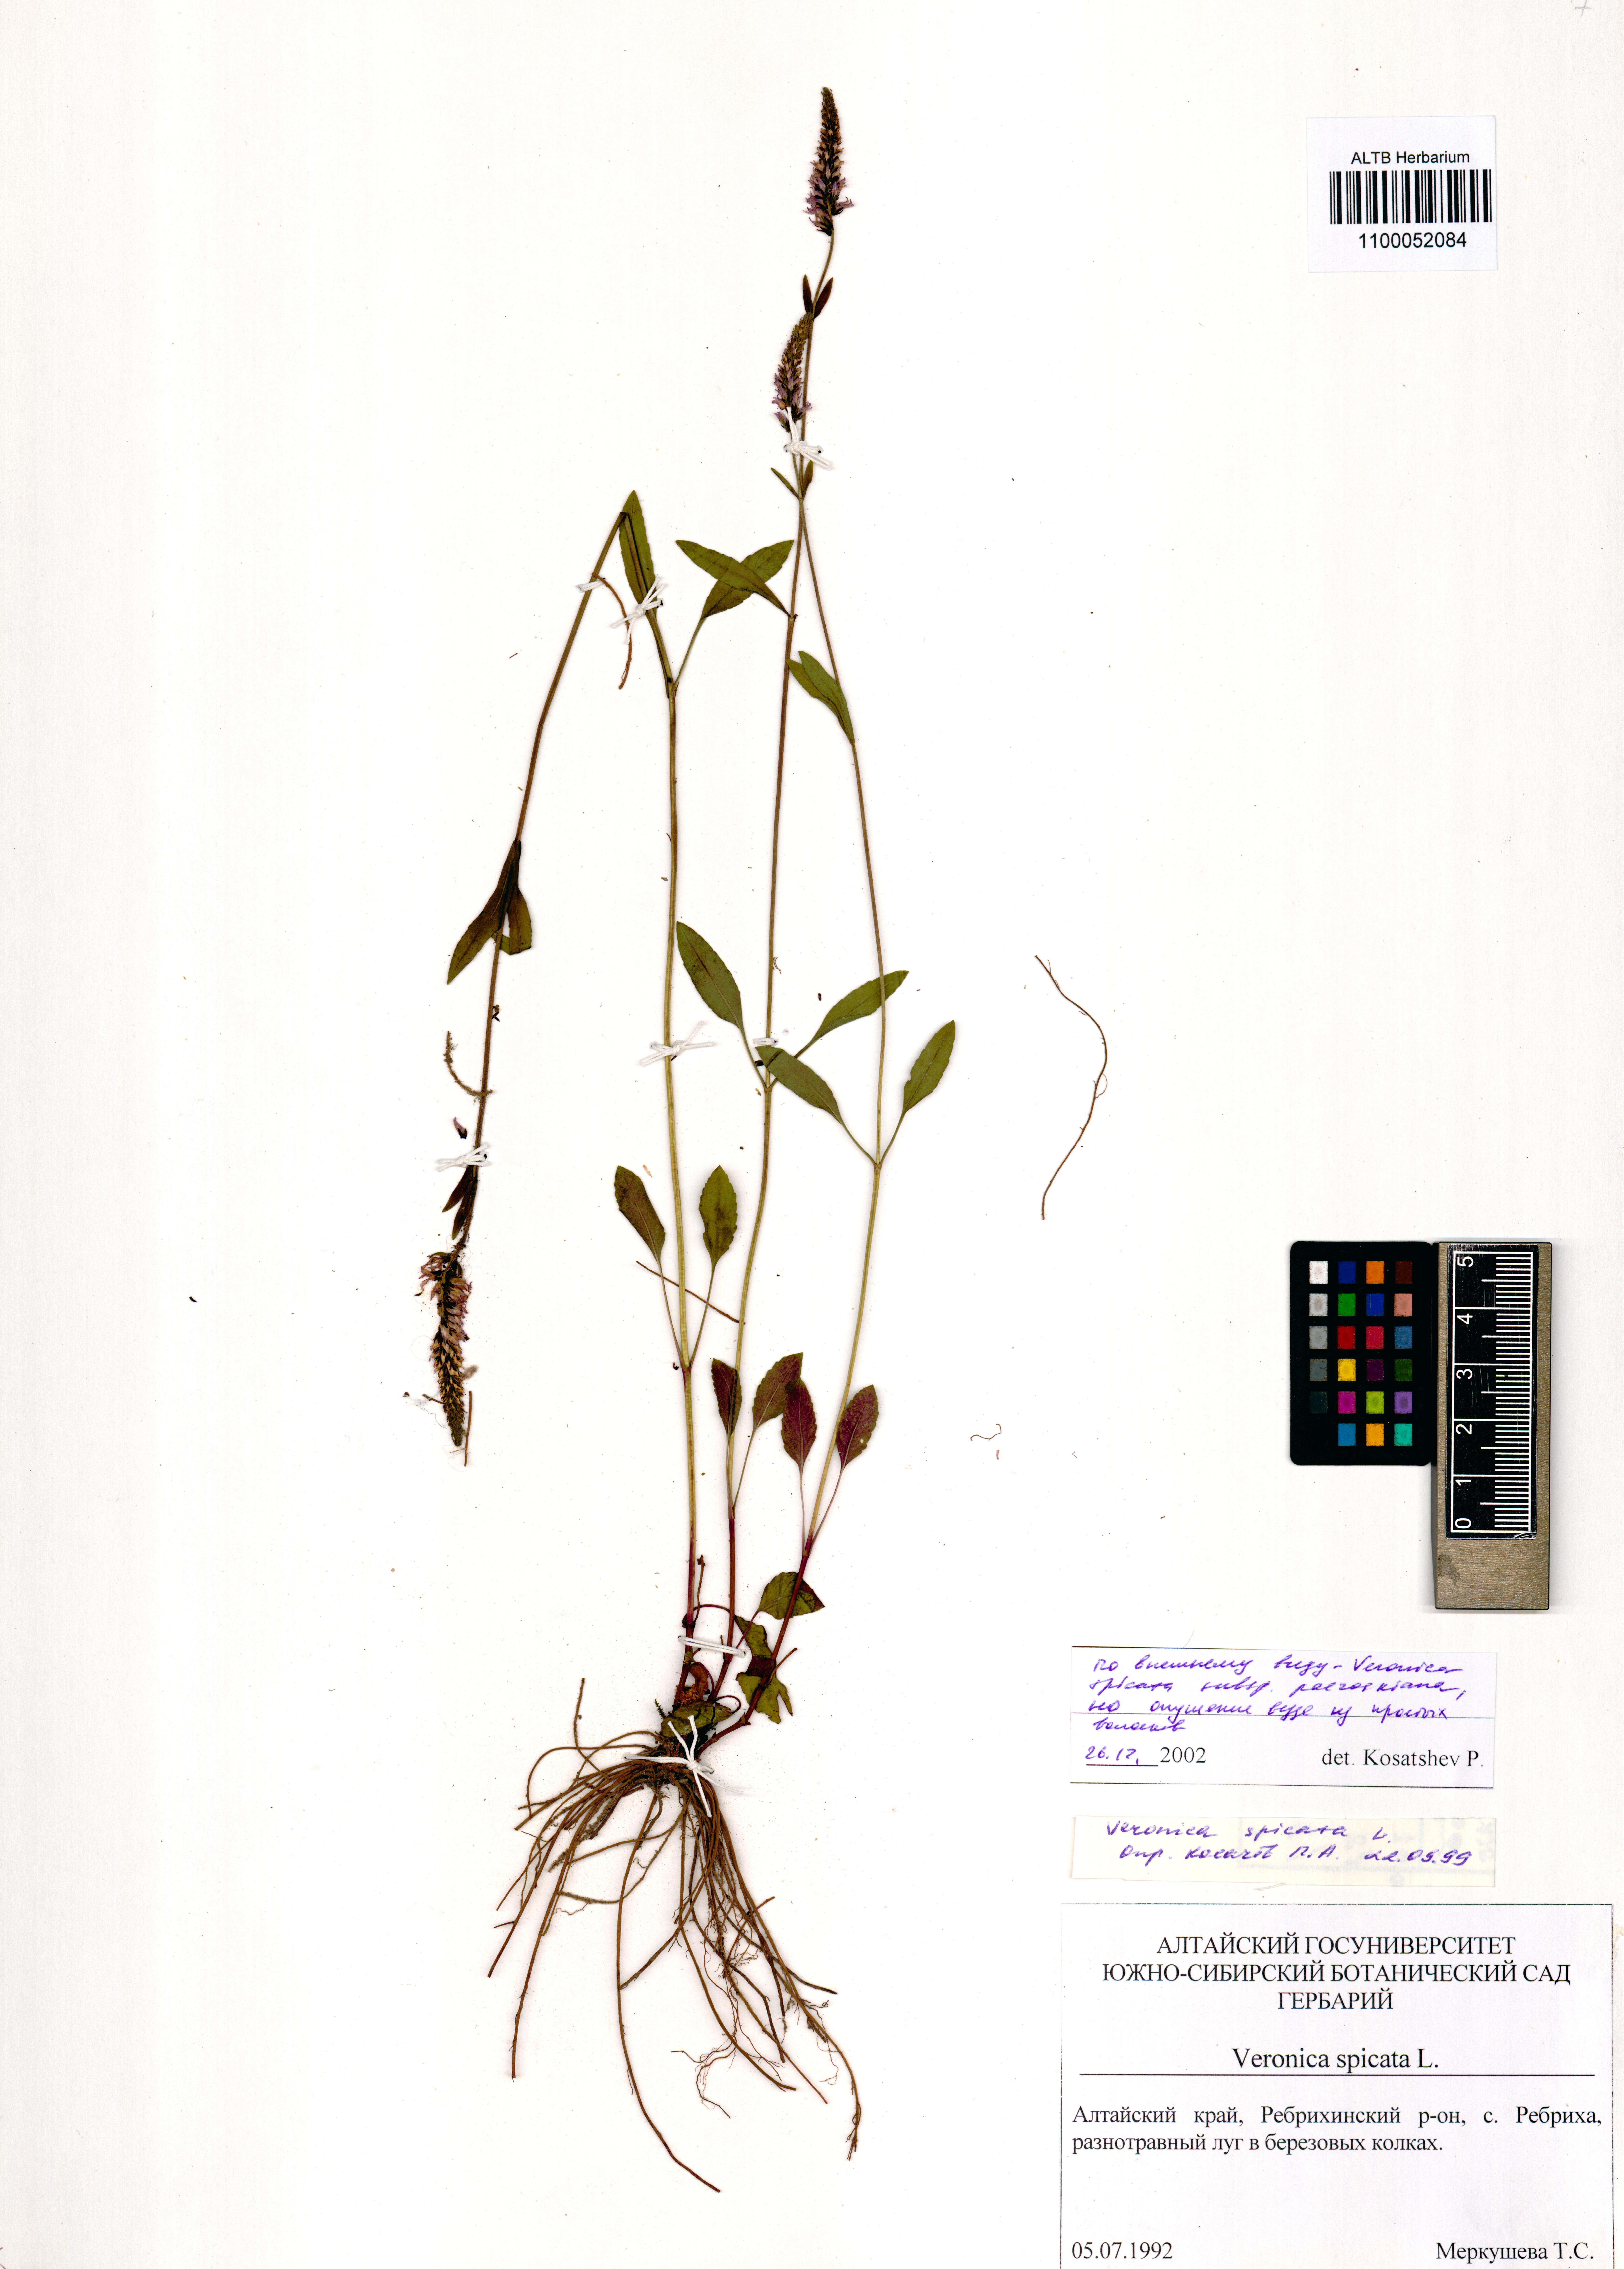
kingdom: Plantae
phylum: Tracheophyta
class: Magnoliopsida
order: Lamiales
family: Plantaginaceae
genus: Veronica
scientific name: Veronica spicata
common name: Spiked speedwell
